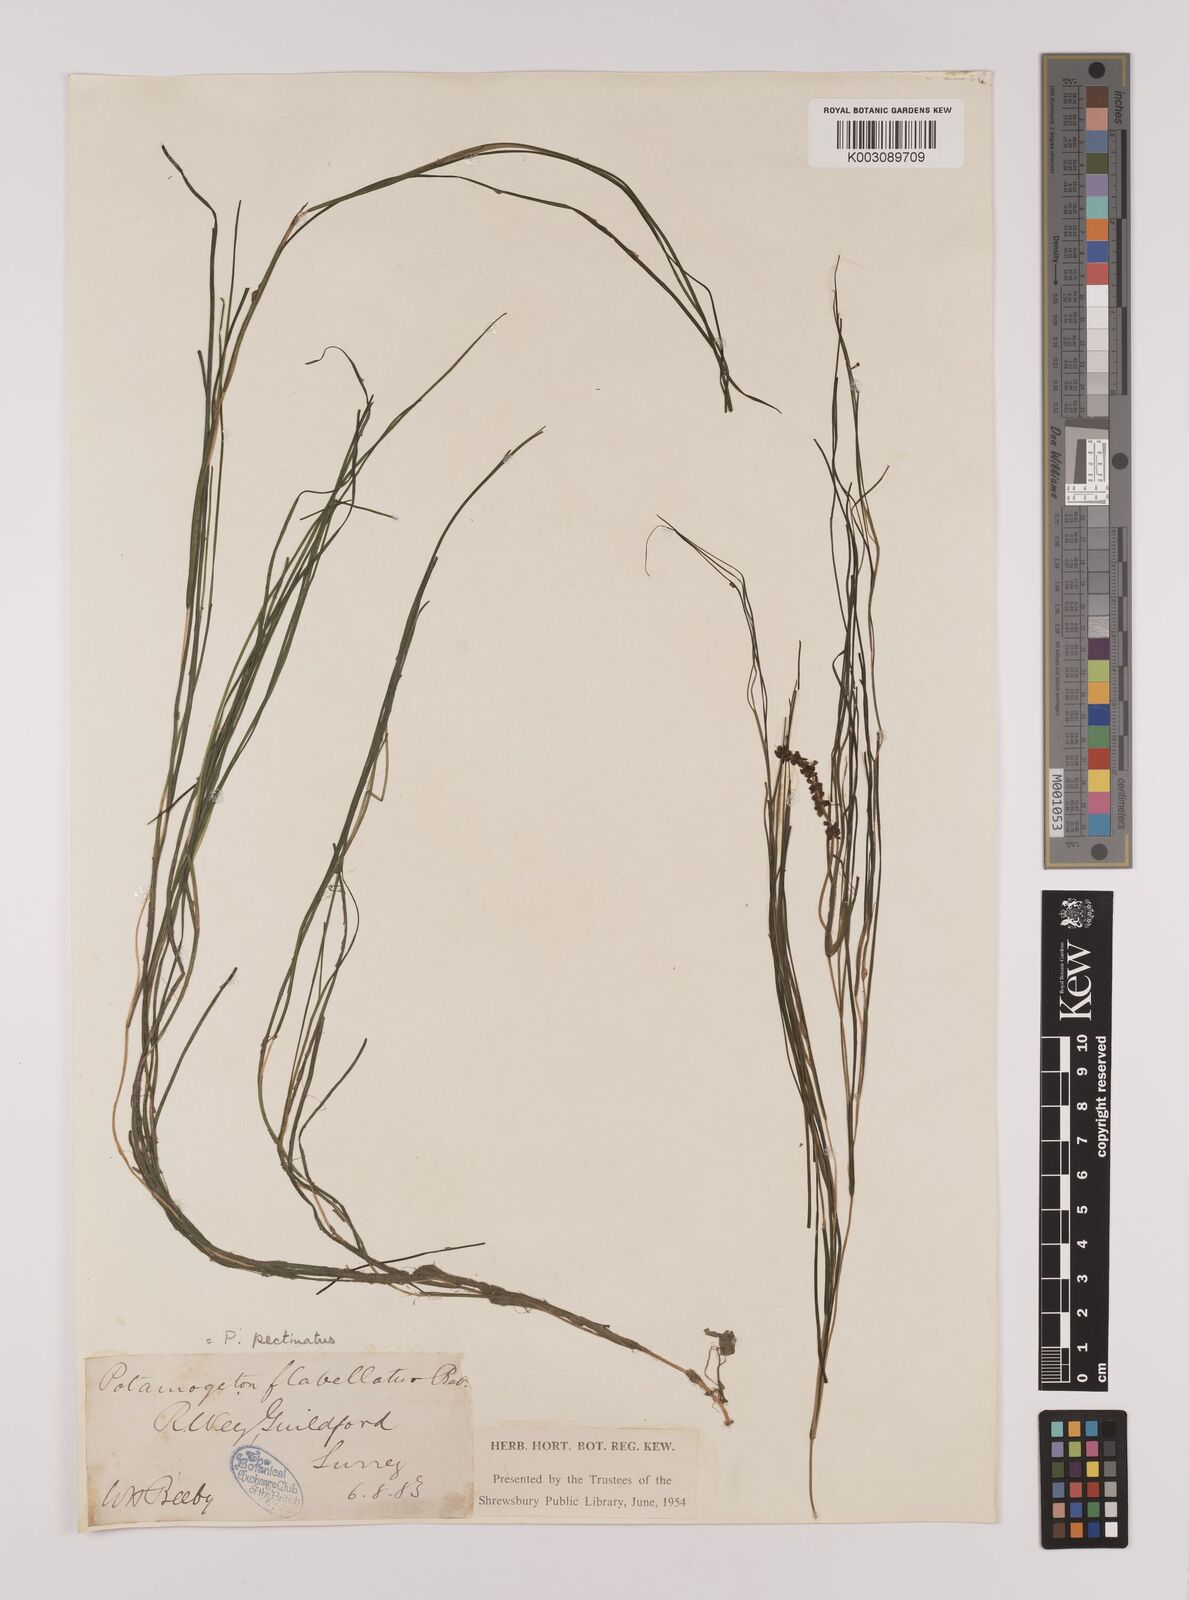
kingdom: Plantae
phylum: Tracheophyta
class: Liliopsida
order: Alismatales
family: Potamogetonaceae
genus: Stuckenia
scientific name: Stuckenia pectinata
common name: Sago pondweed
